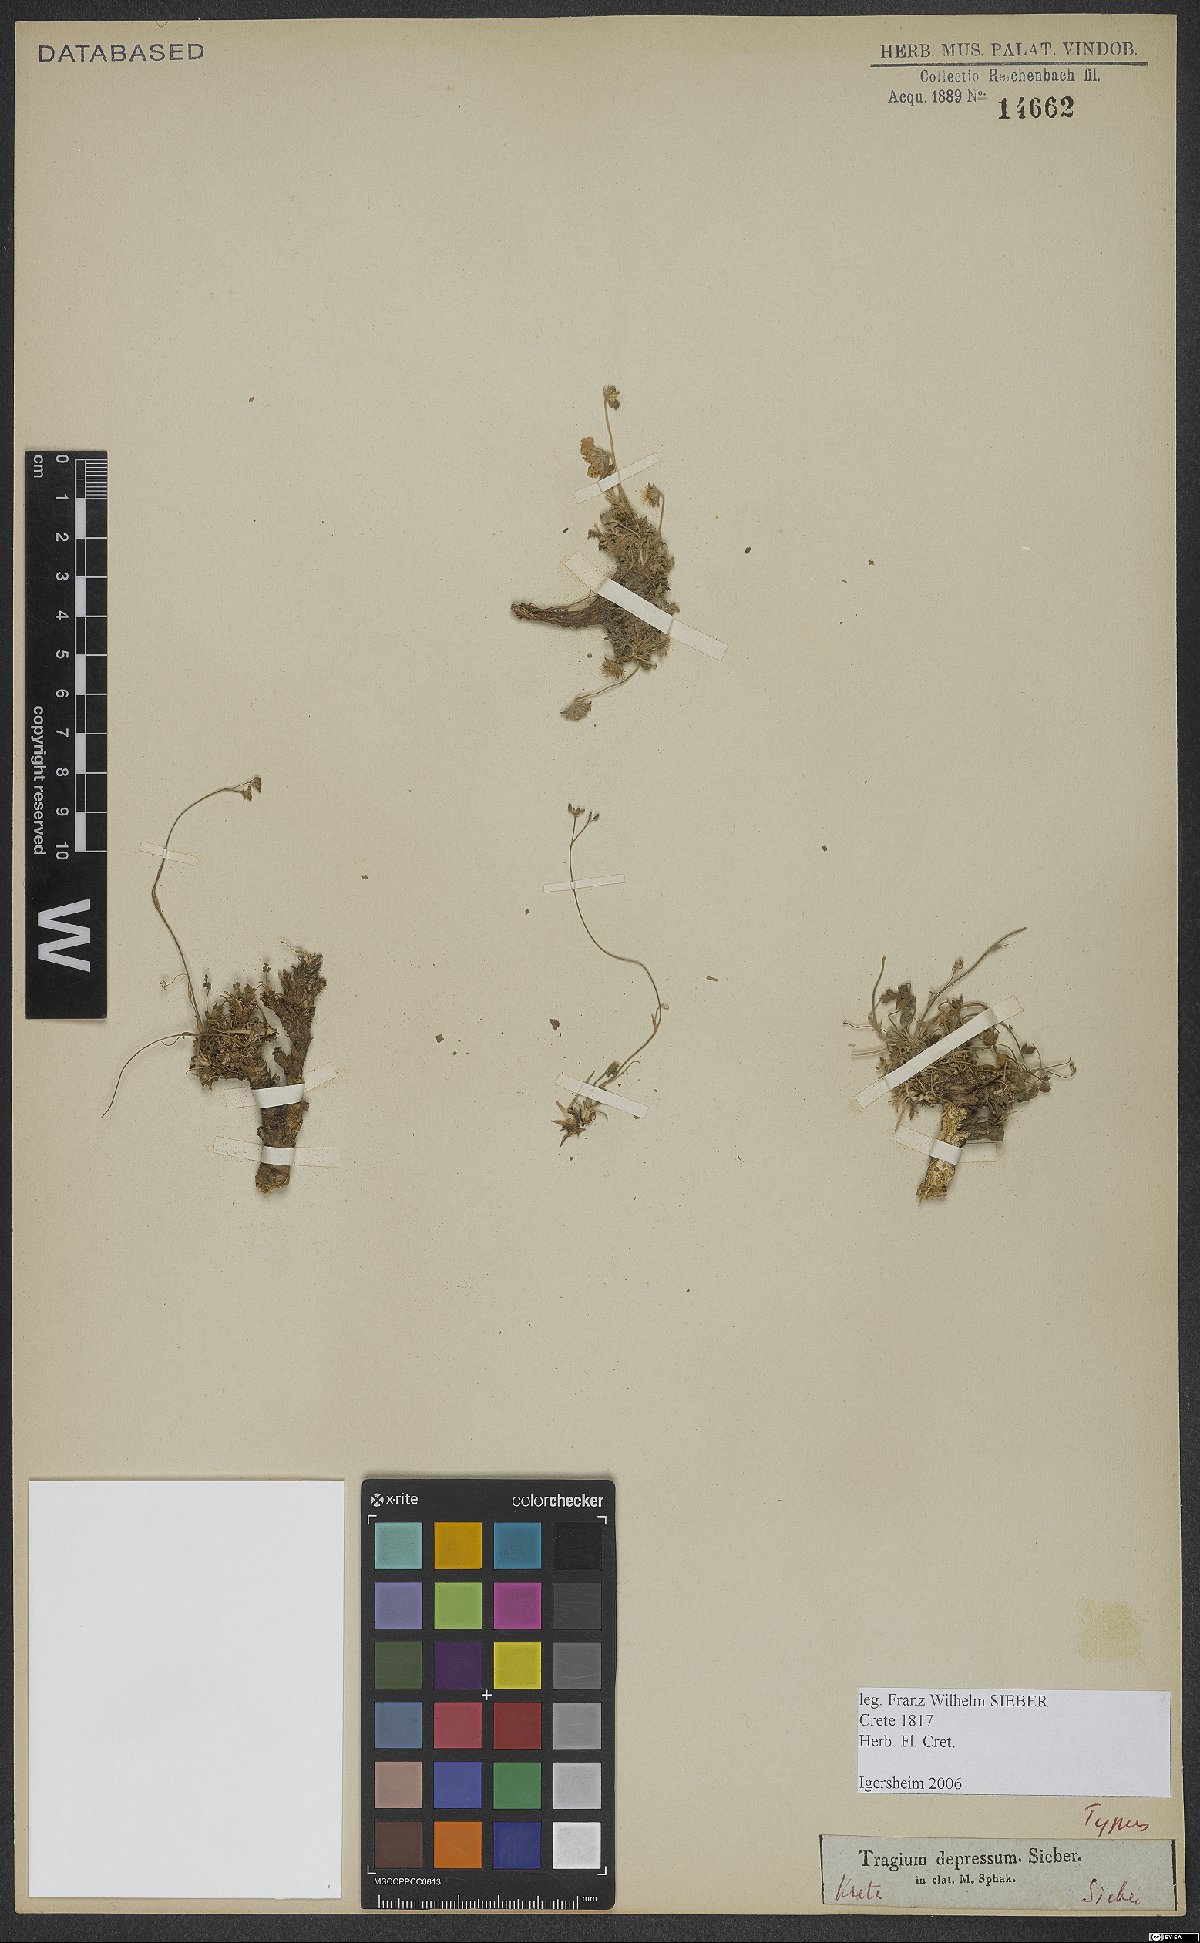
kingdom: Plantae
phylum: Tracheophyta
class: Magnoliopsida
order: Apiales
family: Apiaceae
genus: Pimpinella
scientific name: Pimpinella tragium
